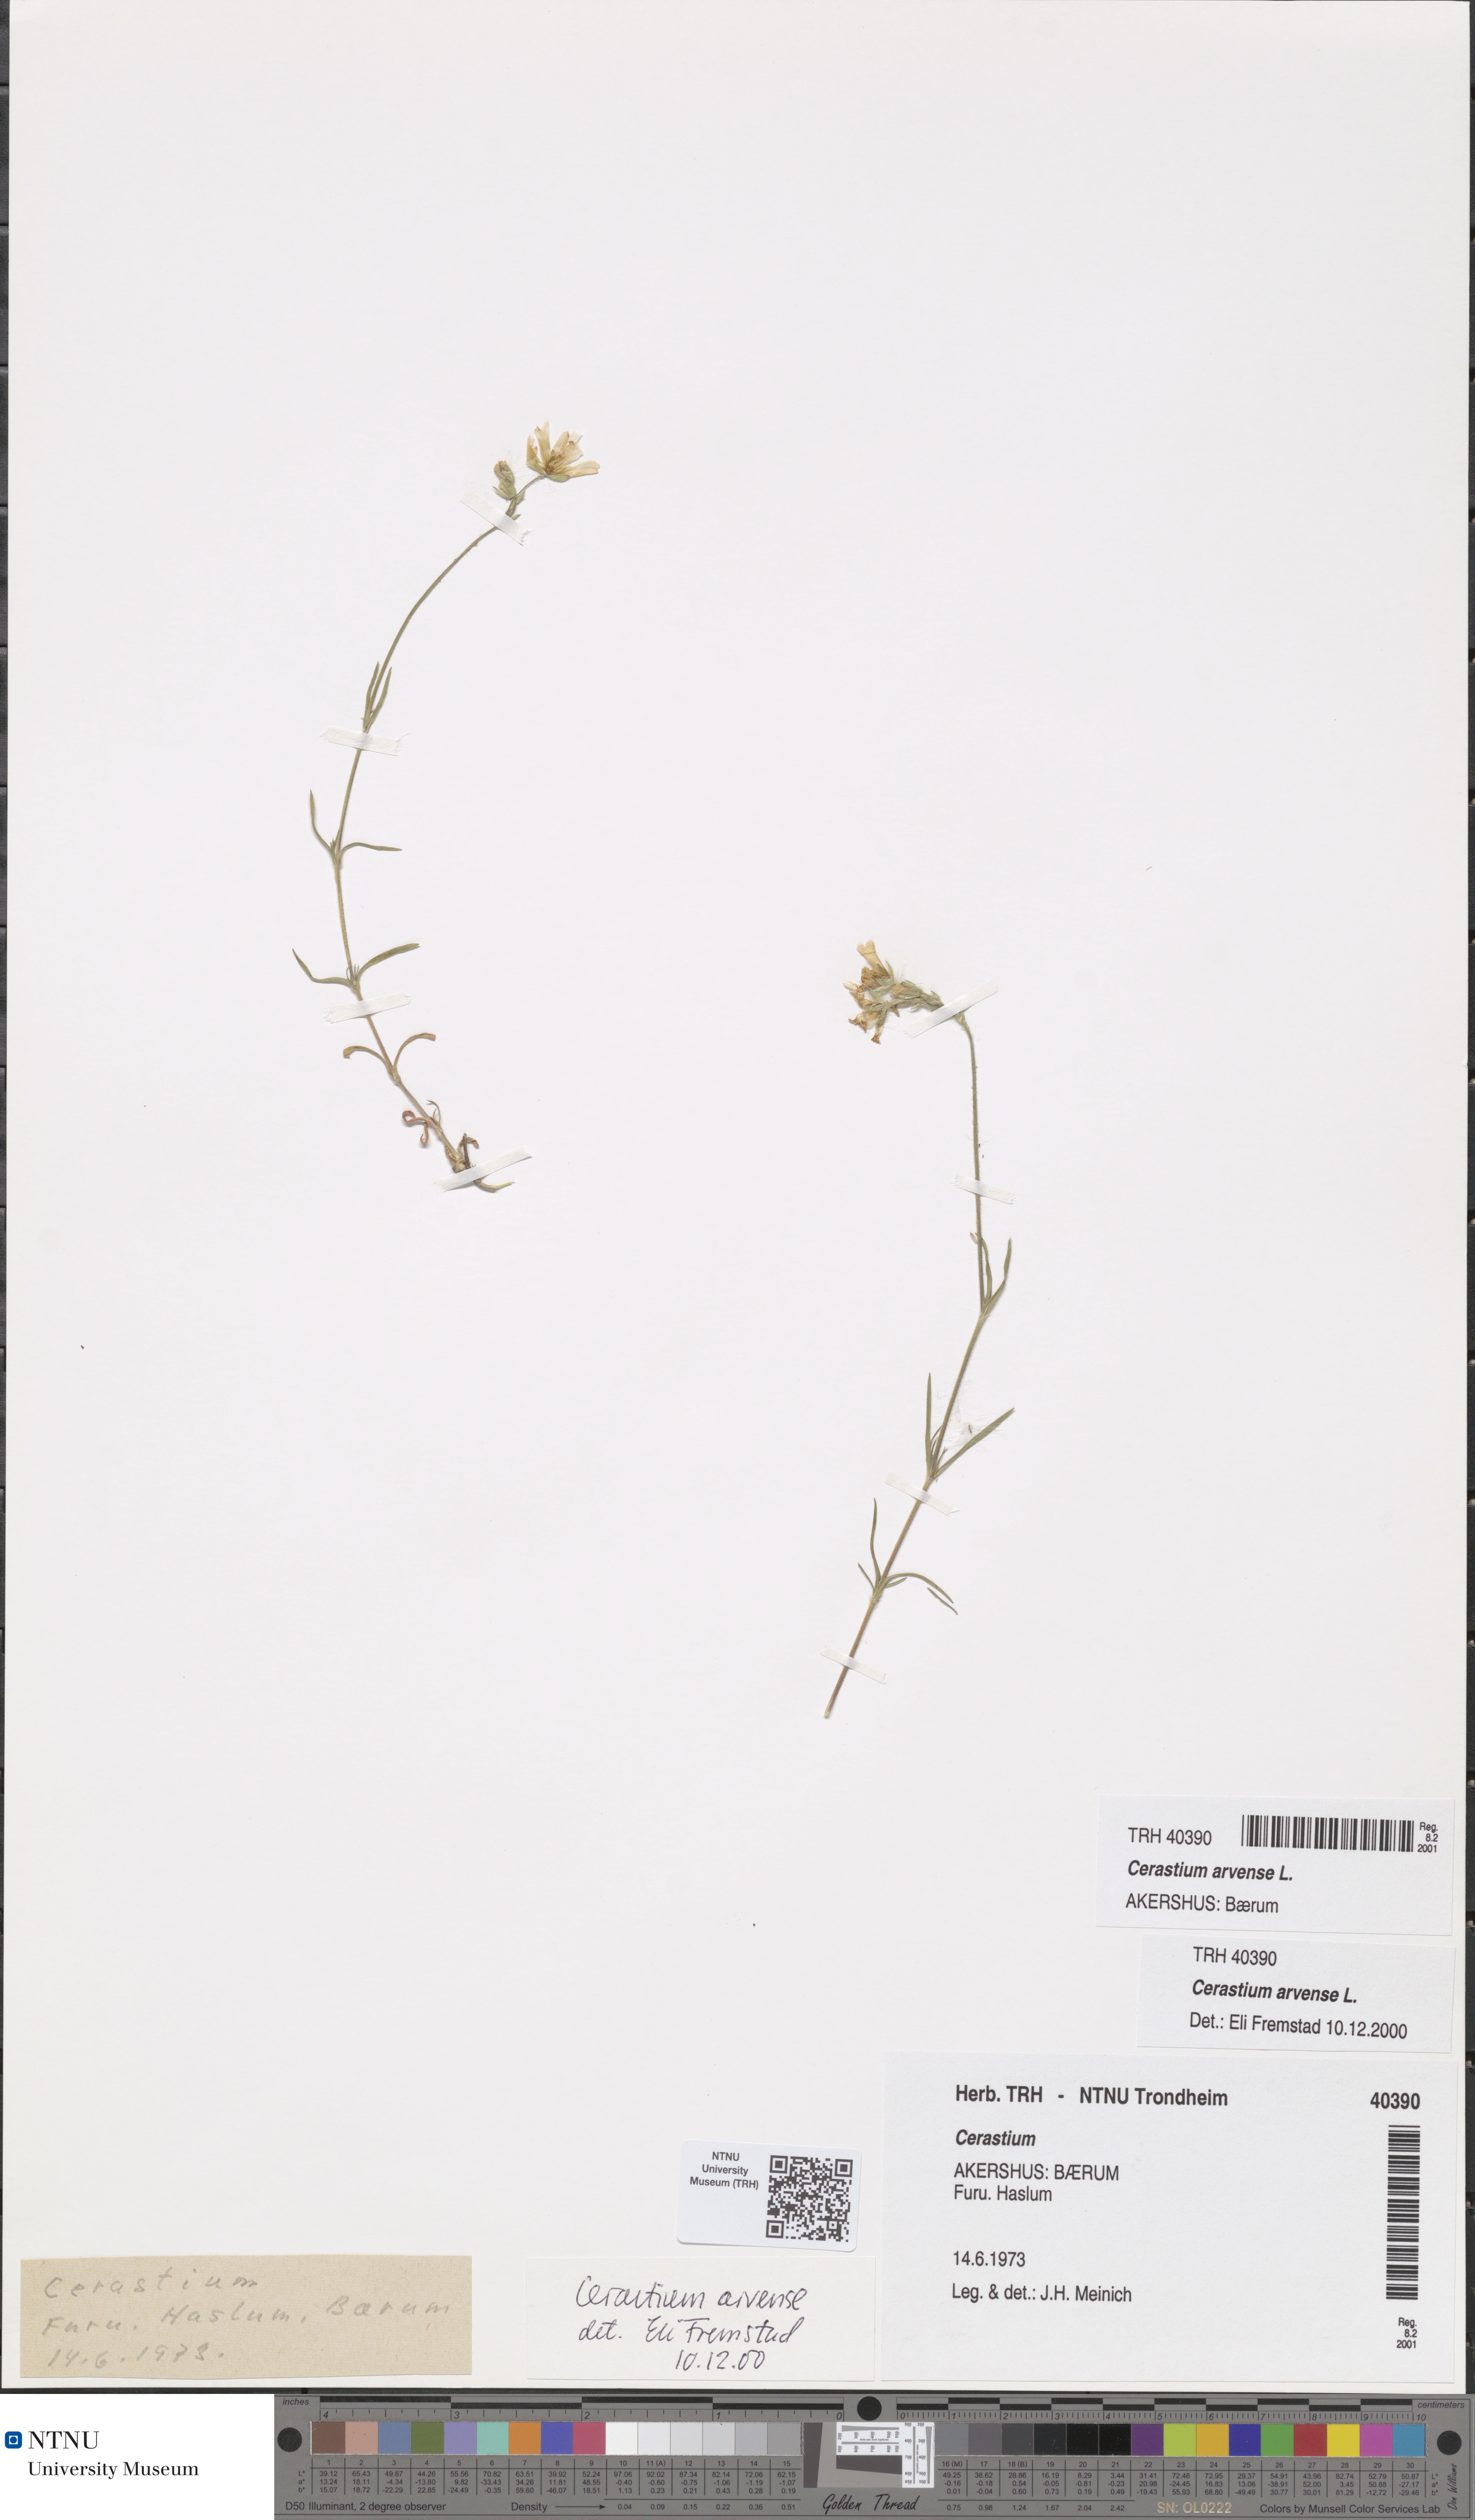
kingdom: Plantae
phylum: Tracheophyta
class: Magnoliopsida
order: Caryophyllales
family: Caryophyllaceae
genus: Cerastium
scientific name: Cerastium arvense
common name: Field mouse-ear
